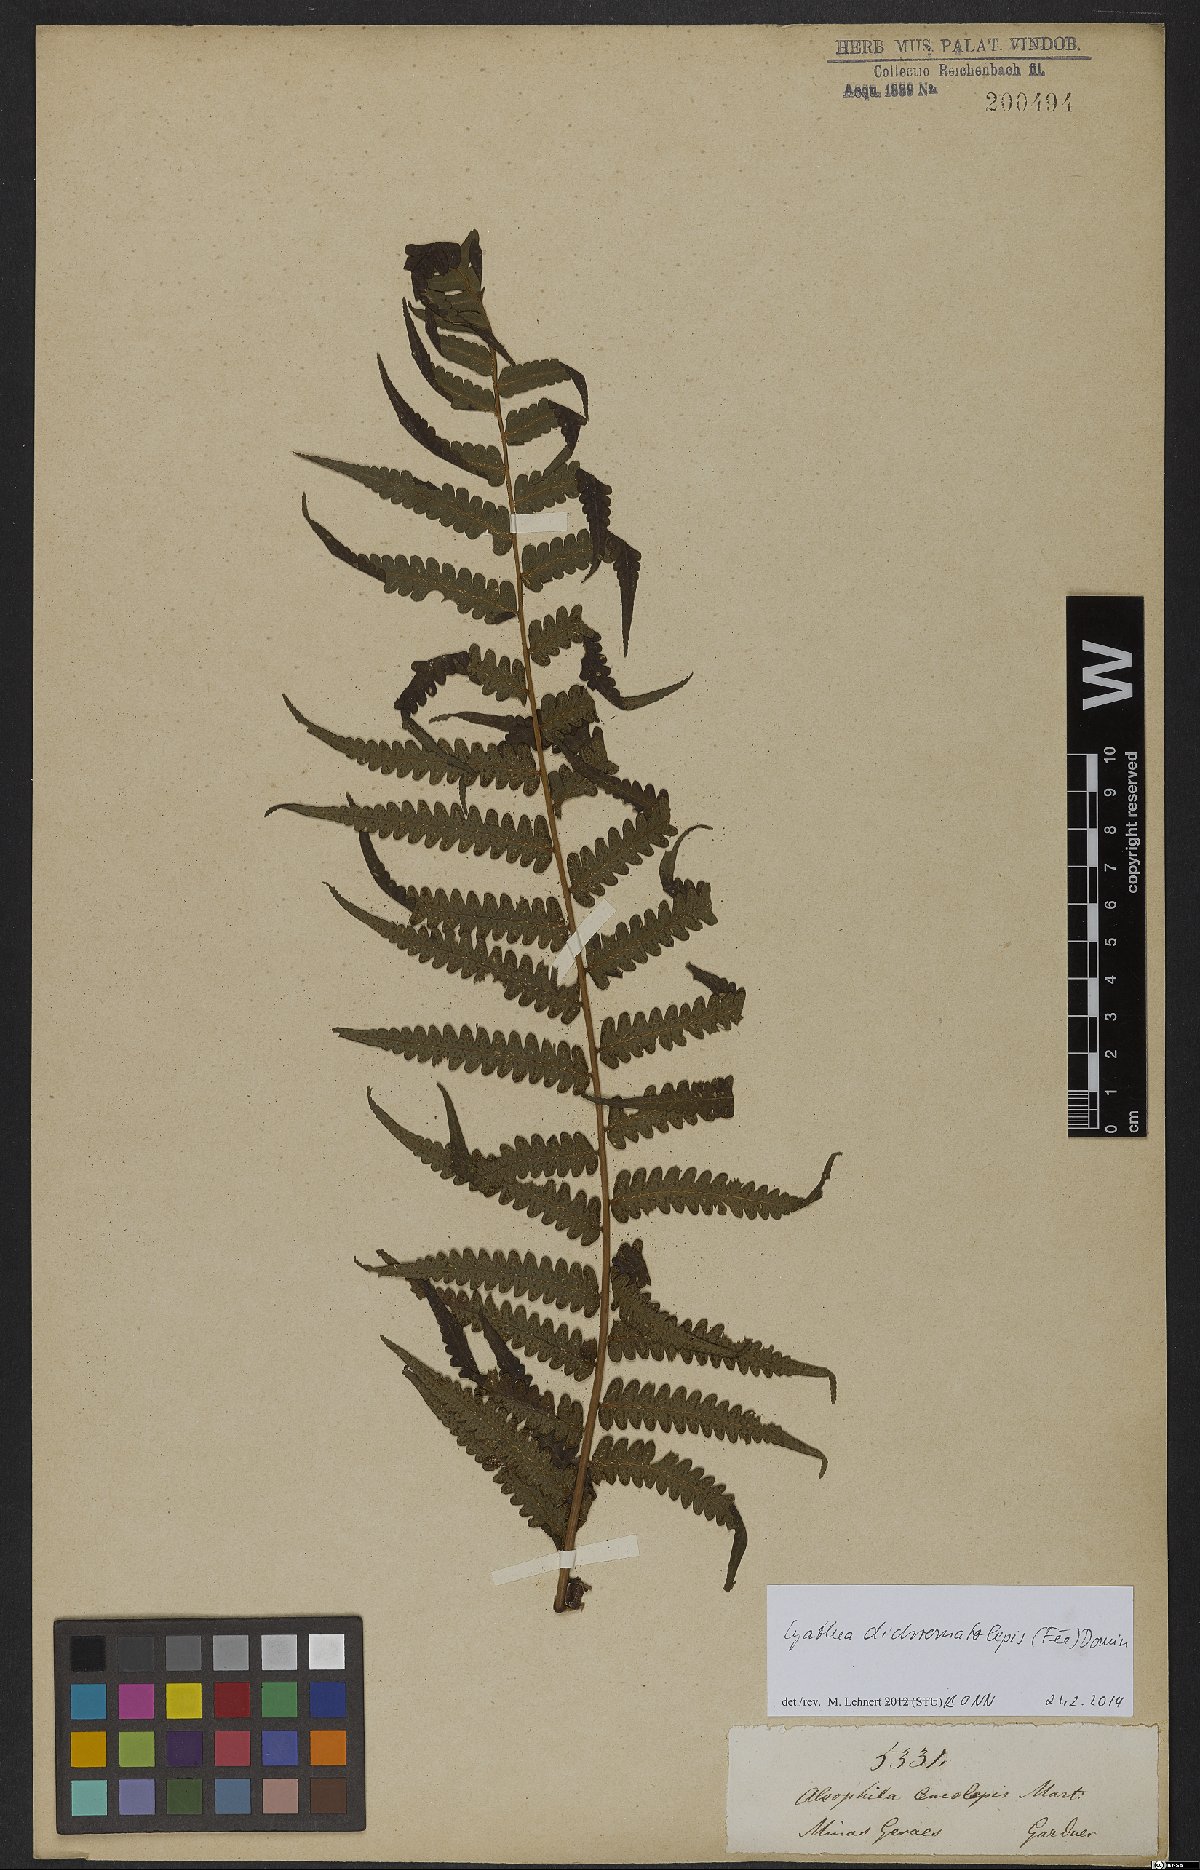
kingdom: Plantae
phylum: Tracheophyta
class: Polypodiopsida
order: Cyatheales
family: Cyatheaceae
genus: Cyathea
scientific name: Cyathea dichromatolepis
